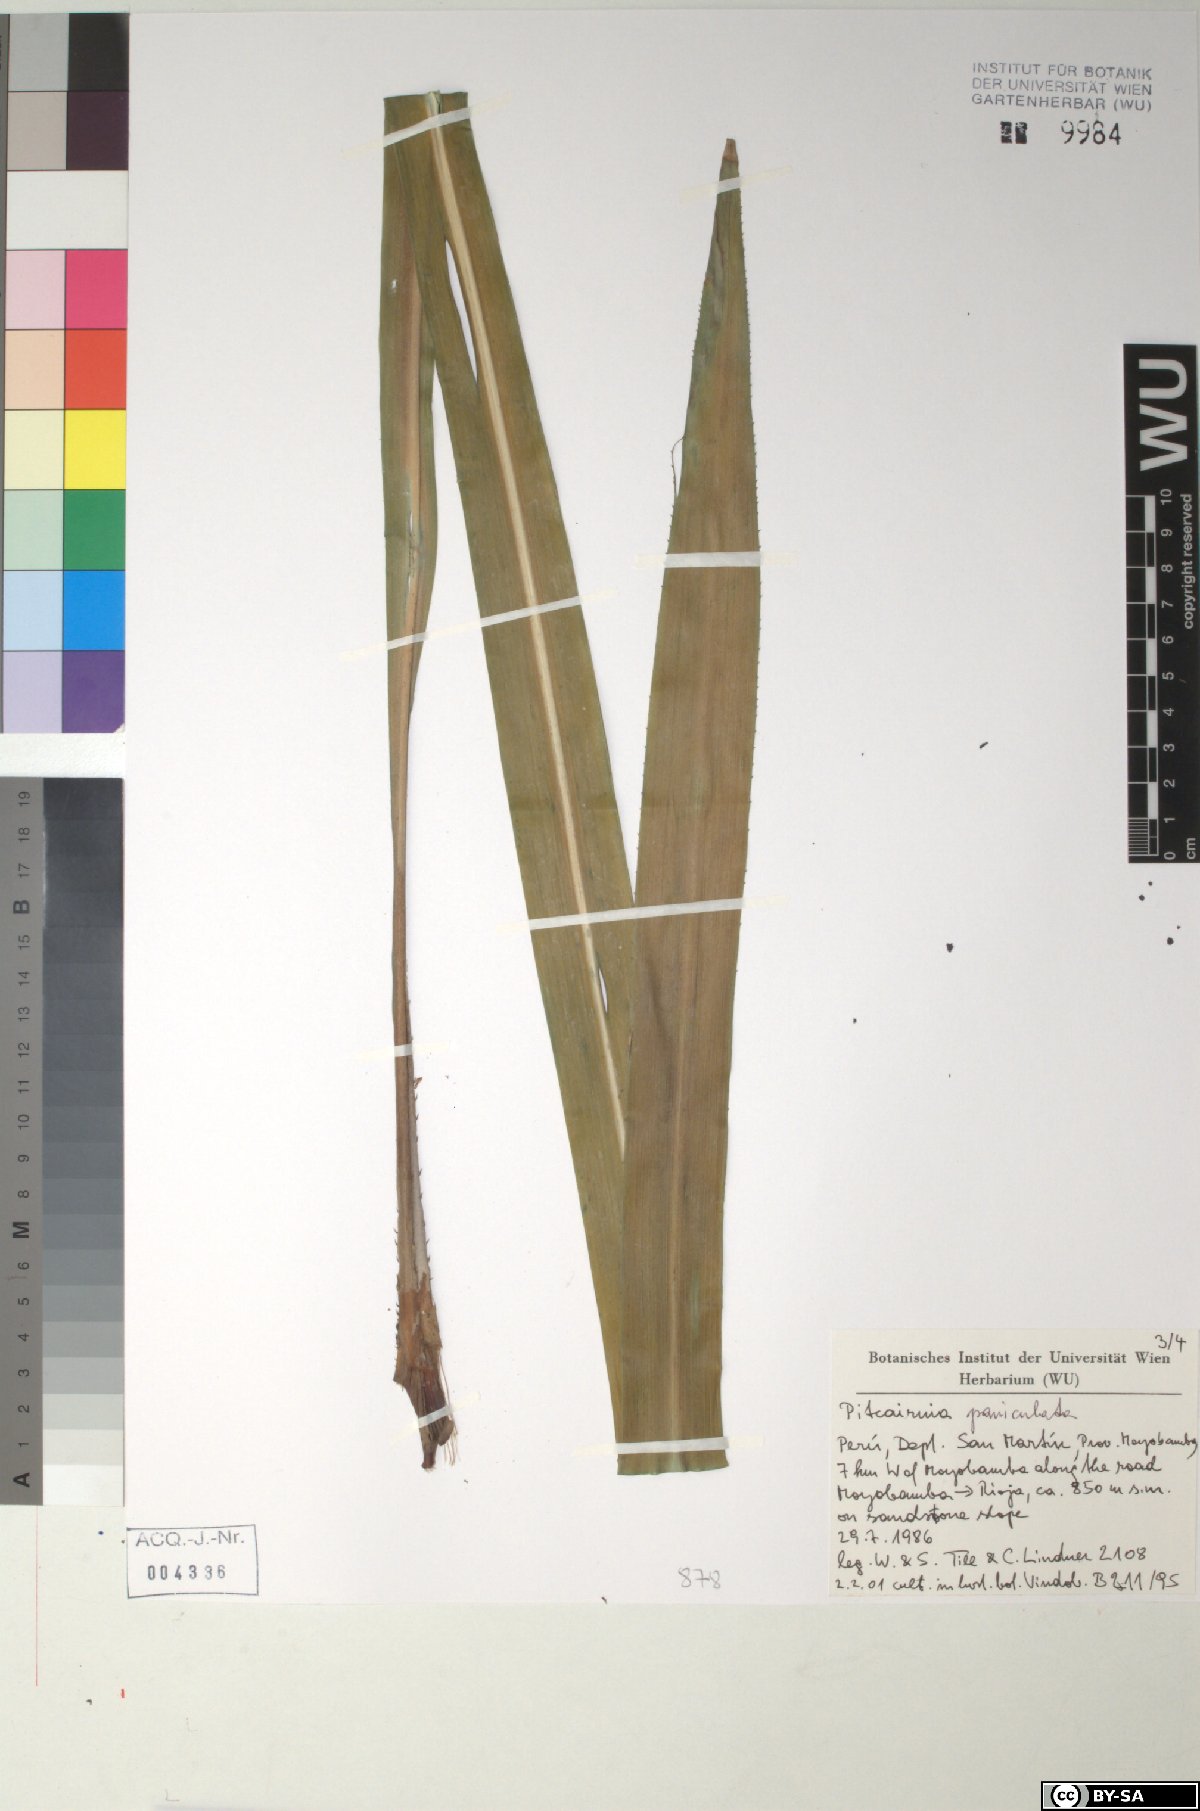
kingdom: Plantae
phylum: Tracheophyta
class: Liliopsida
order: Poales
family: Bromeliaceae
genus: Pitcairnia
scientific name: Pitcairnia paniculata
